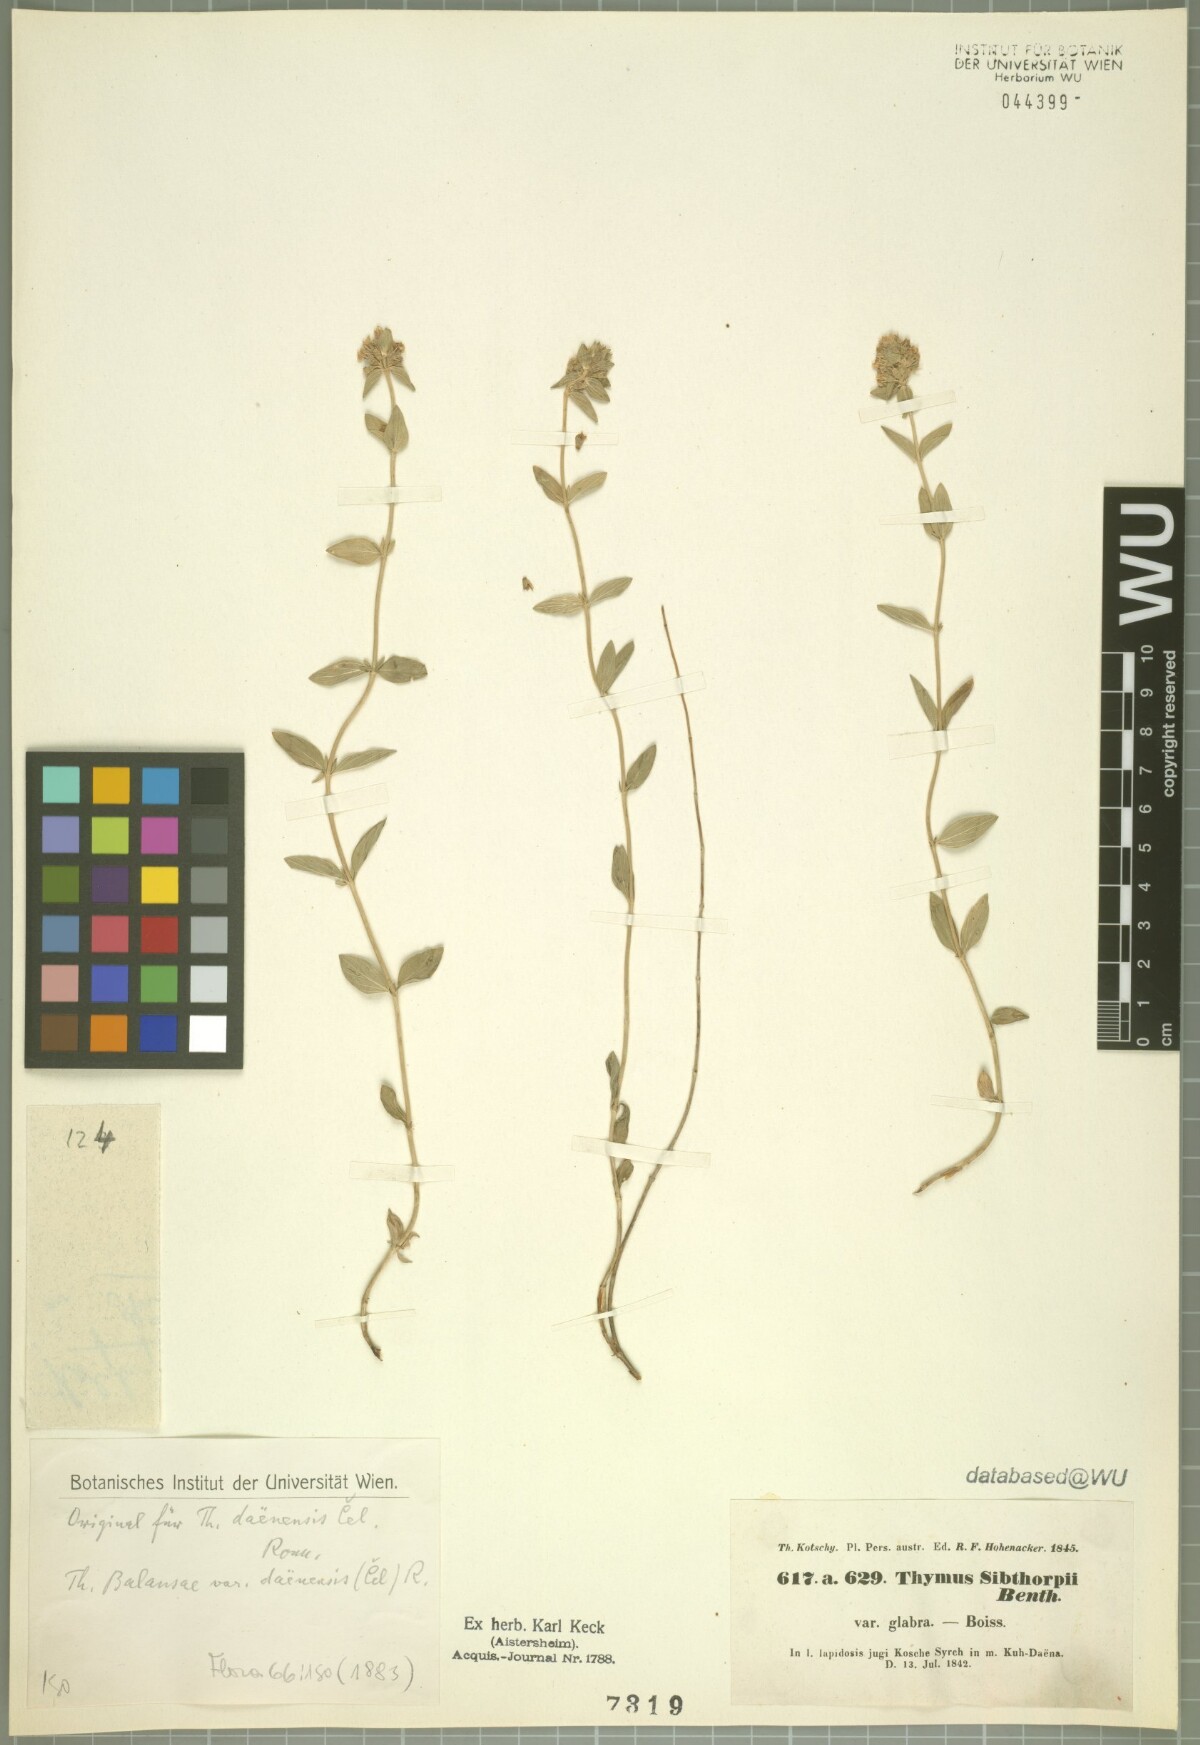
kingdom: Plantae
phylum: Tracheophyta
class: Magnoliopsida
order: Lamiales
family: Lamiaceae
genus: Thymus
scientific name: Thymus daenensis
